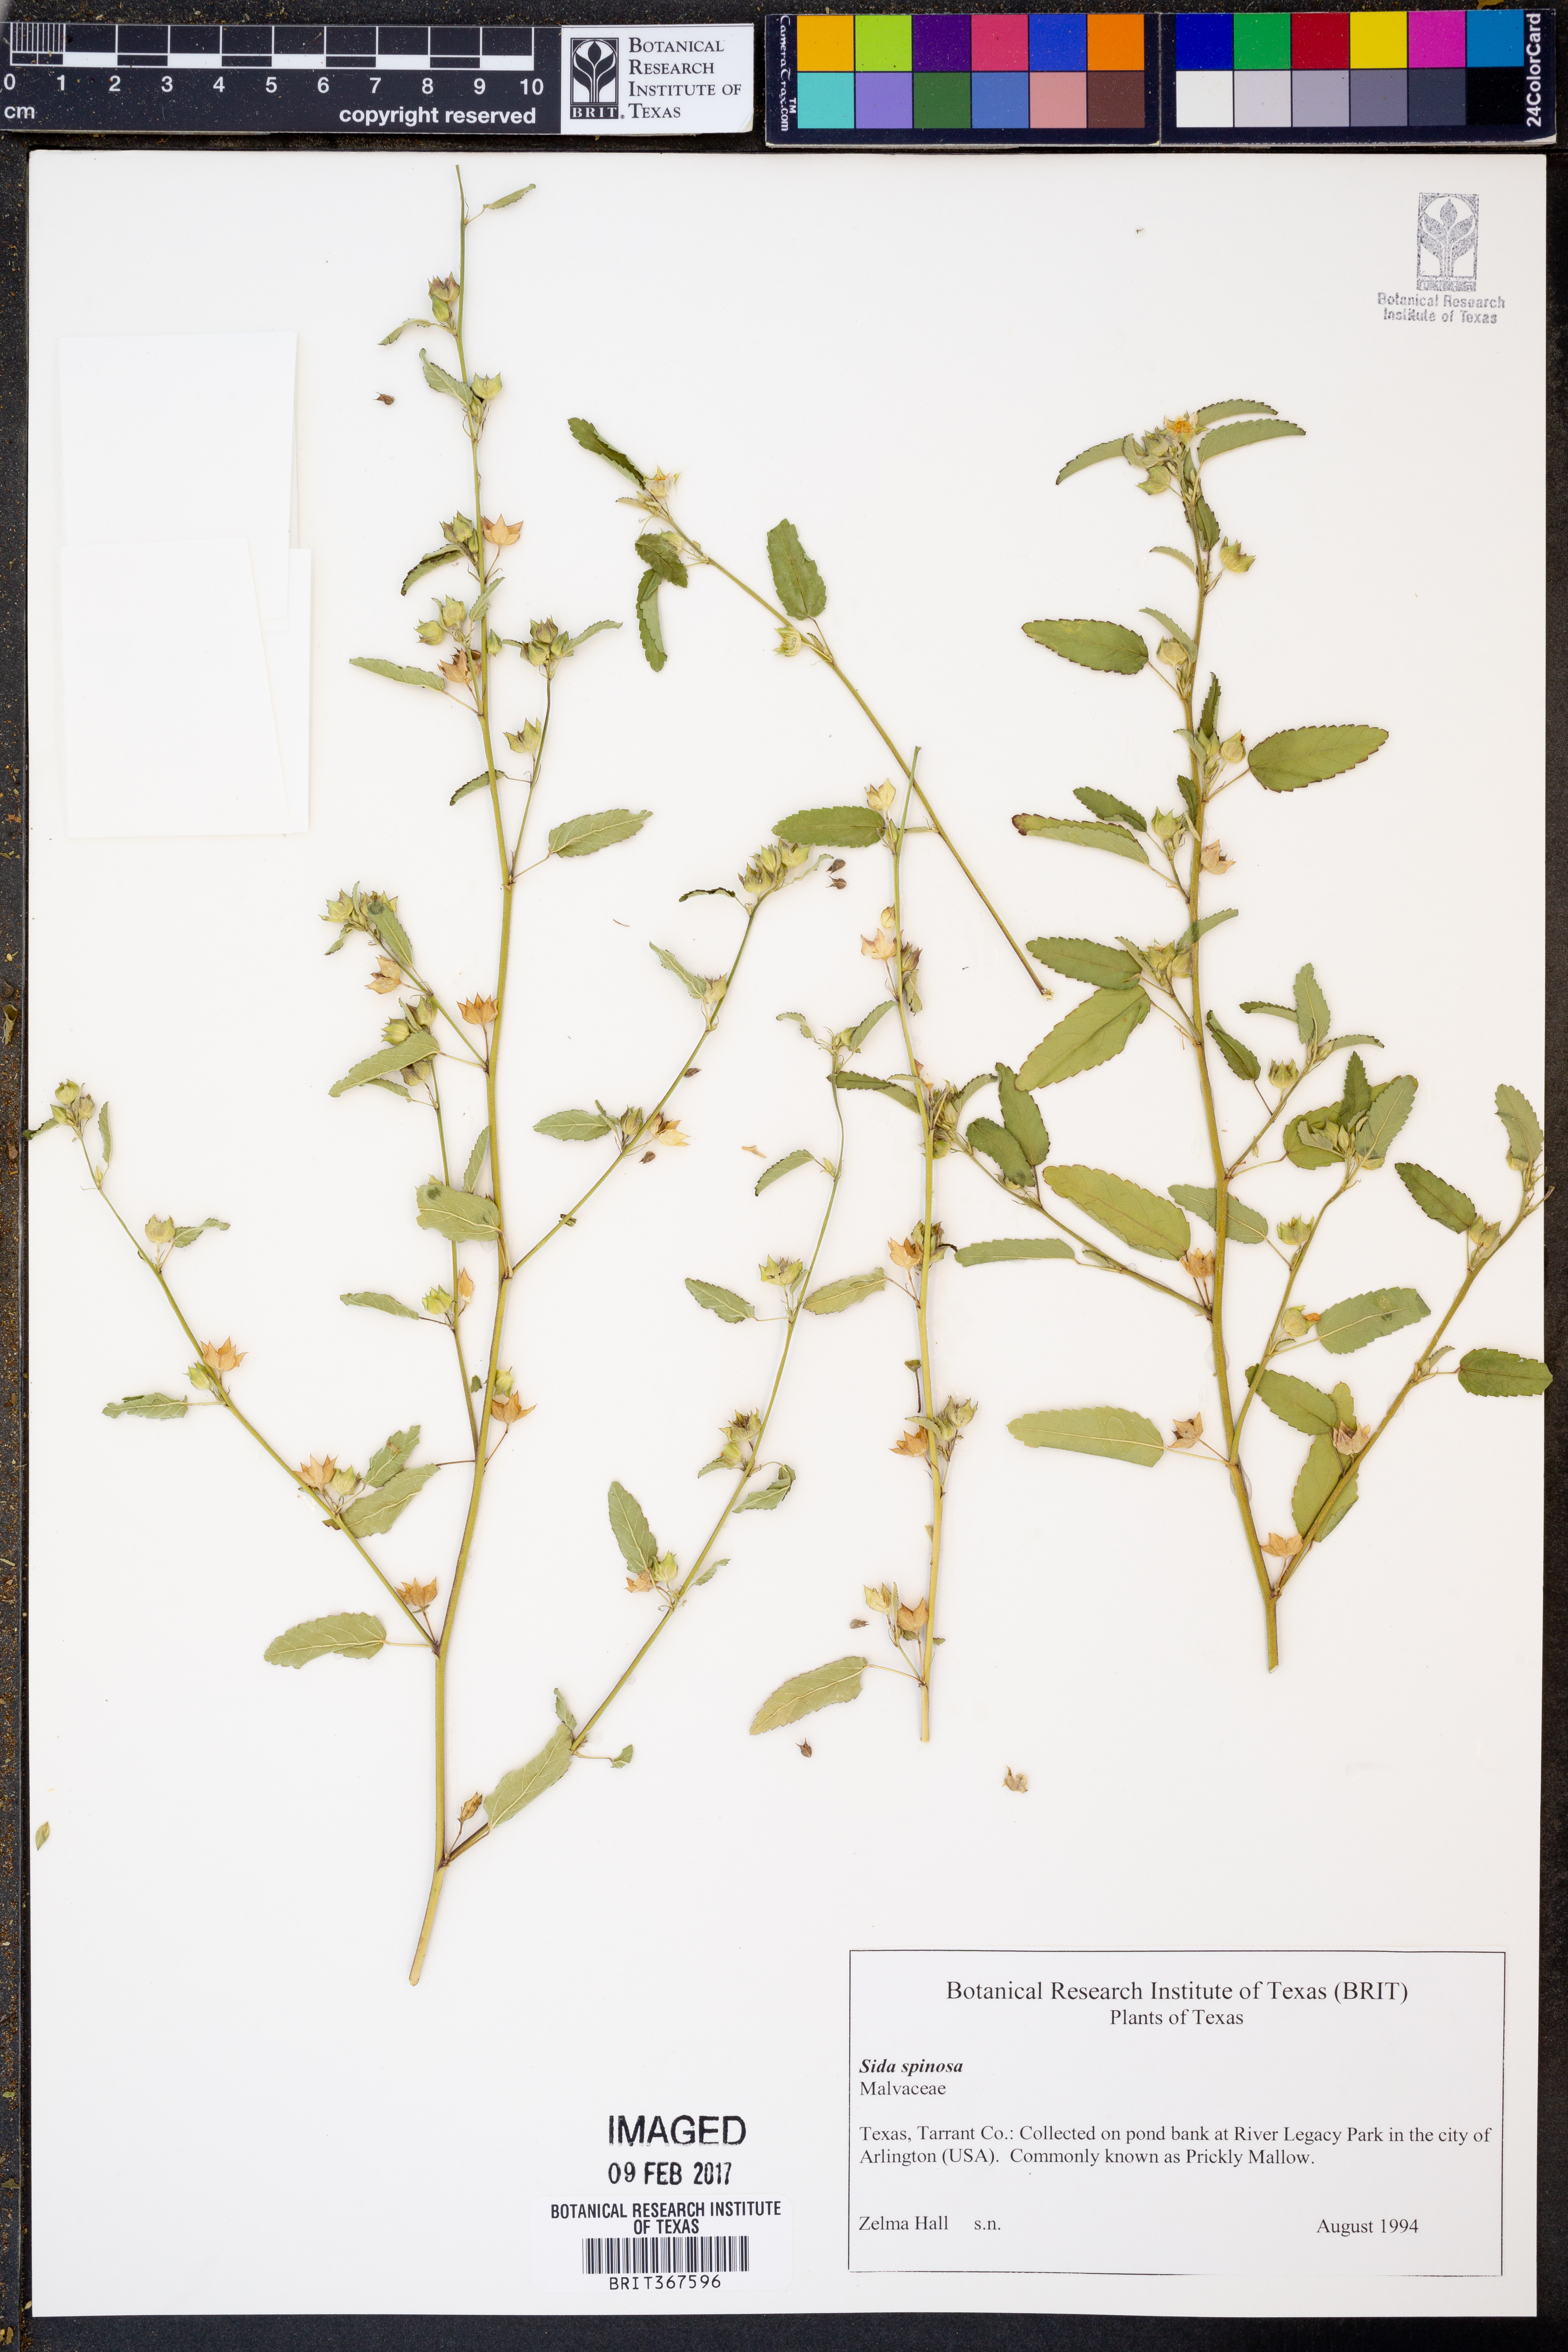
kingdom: Plantae
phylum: Tracheophyta
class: Magnoliopsida
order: Malvales
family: Malvaceae
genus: Sida
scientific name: Sida spinosa
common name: Prickly fanpetals
